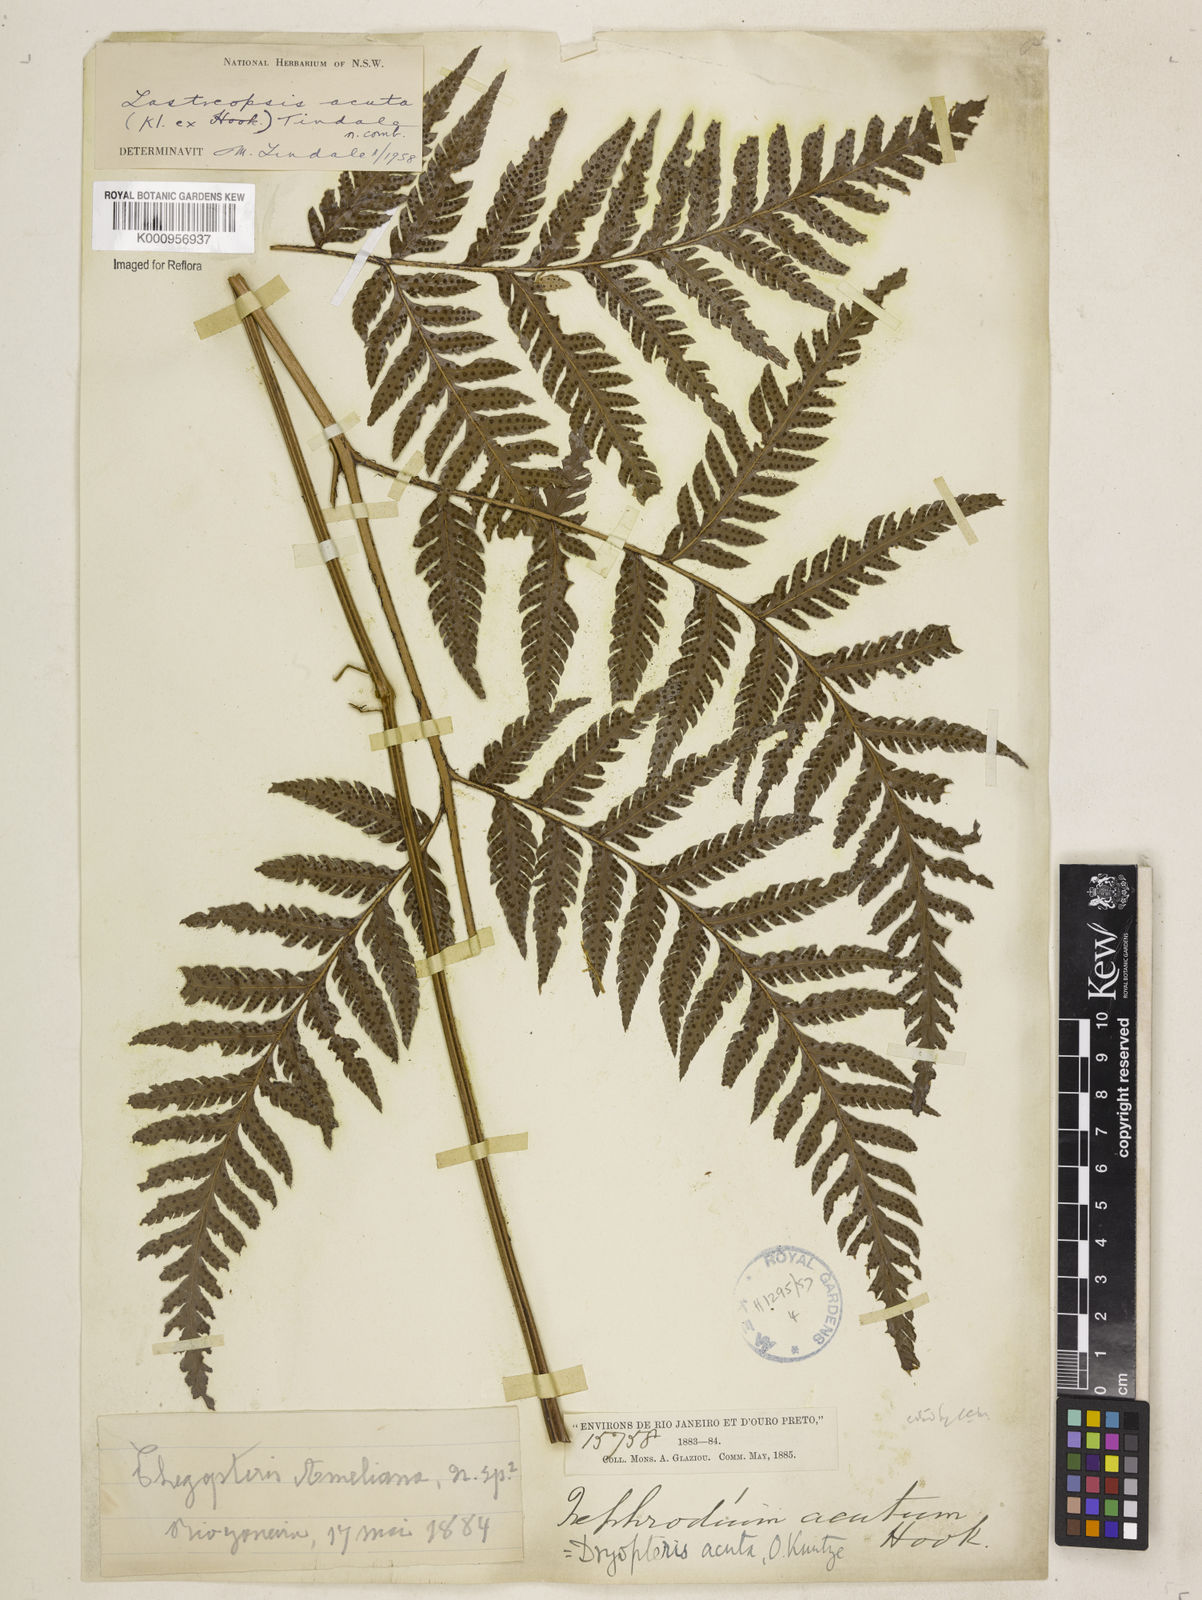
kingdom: Plantae
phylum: Tracheophyta
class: Polypodiopsida
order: Polypodiales
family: Dryopteridaceae
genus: Parapolystichum
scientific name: Parapolystichum acutum
